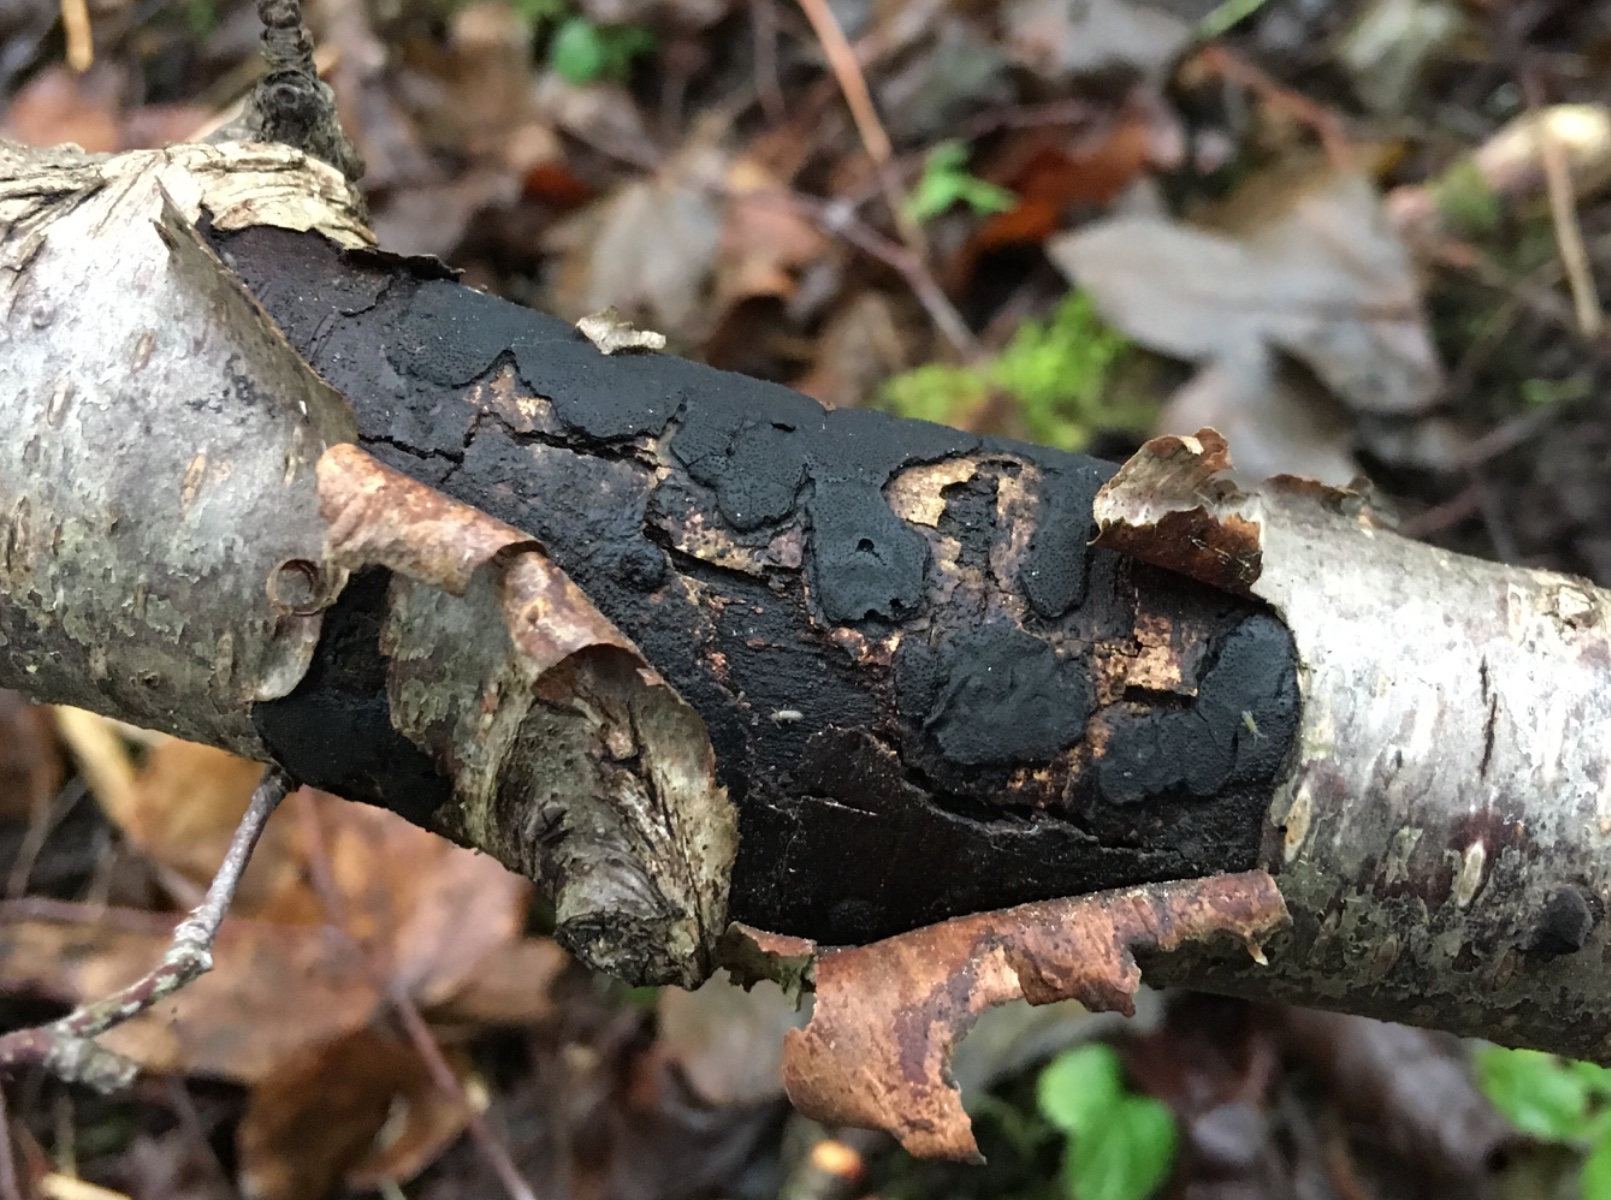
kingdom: Fungi
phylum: Ascomycota
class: Sordariomycetes
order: Xylariales
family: Diatrypaceae
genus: Diatrype
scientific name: Diatrype
